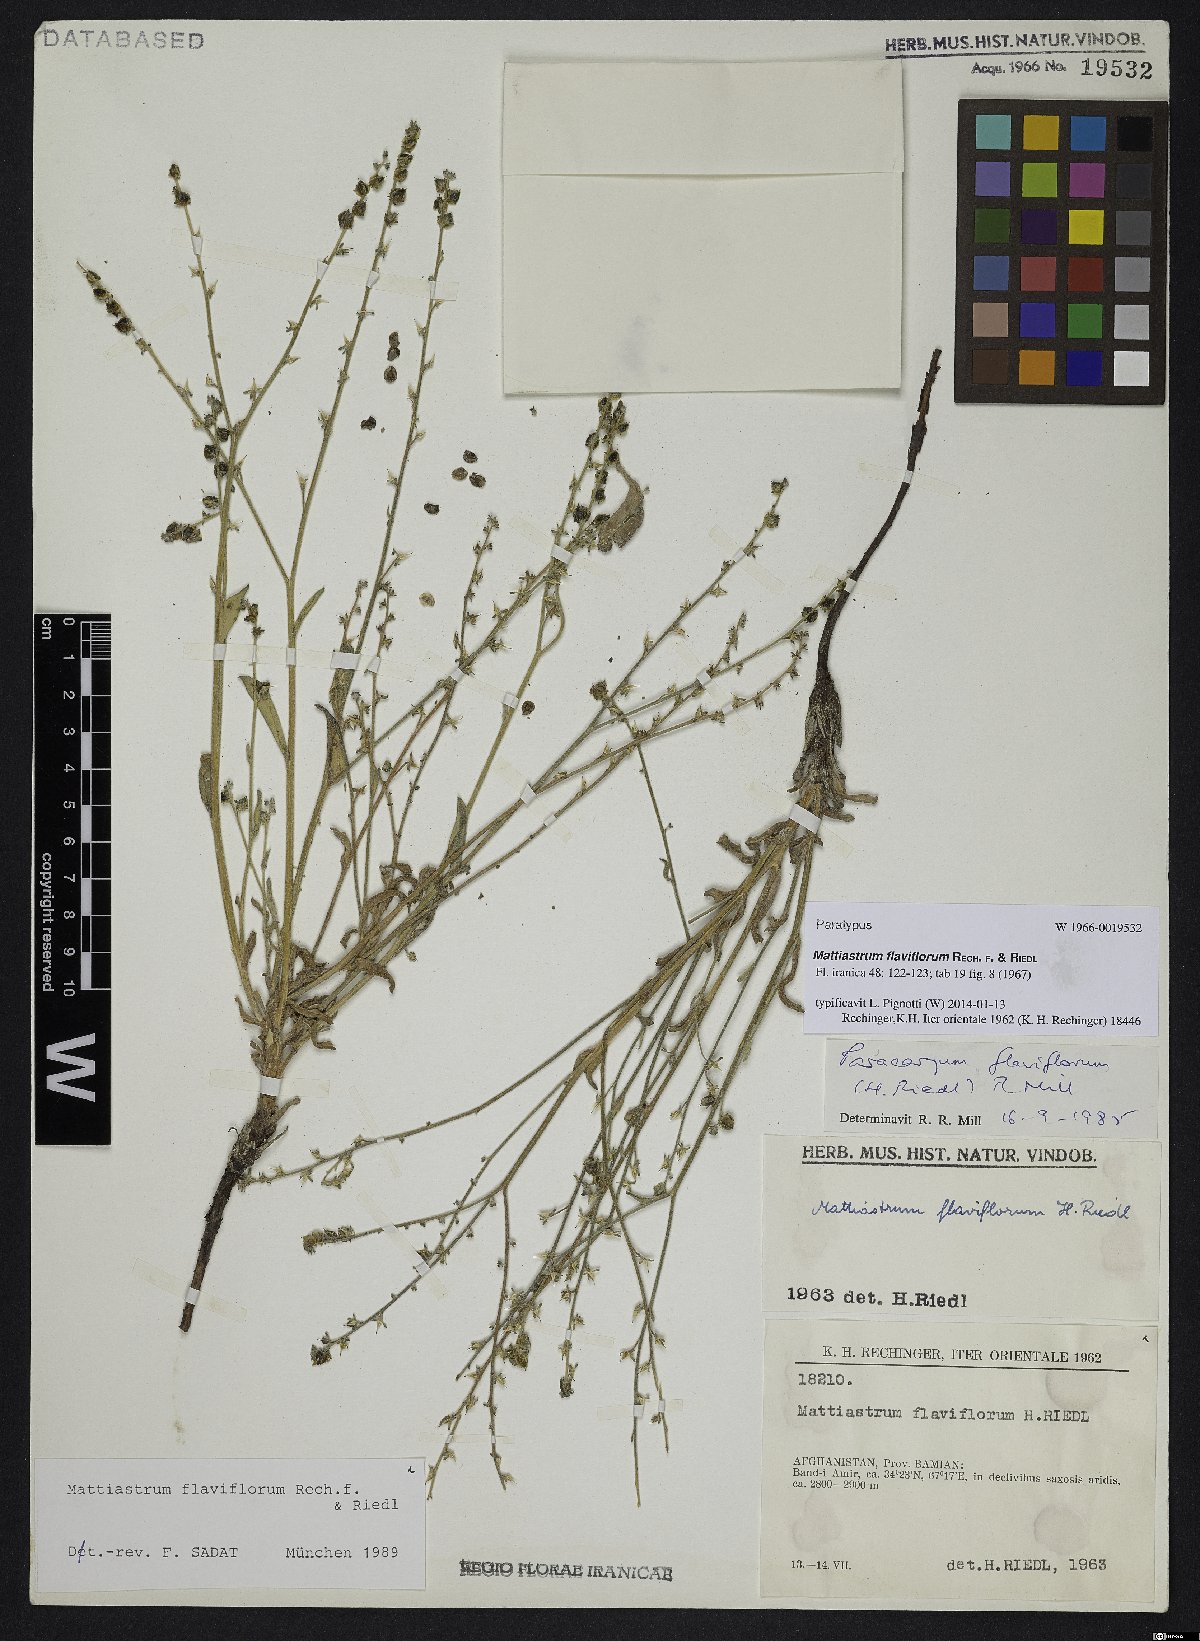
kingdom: Plantae
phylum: Tracheophyta
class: Magnoliopsida
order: Boraginales
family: Boraginaceae
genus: Paracaryum
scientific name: Paracaryum flaviflorum
